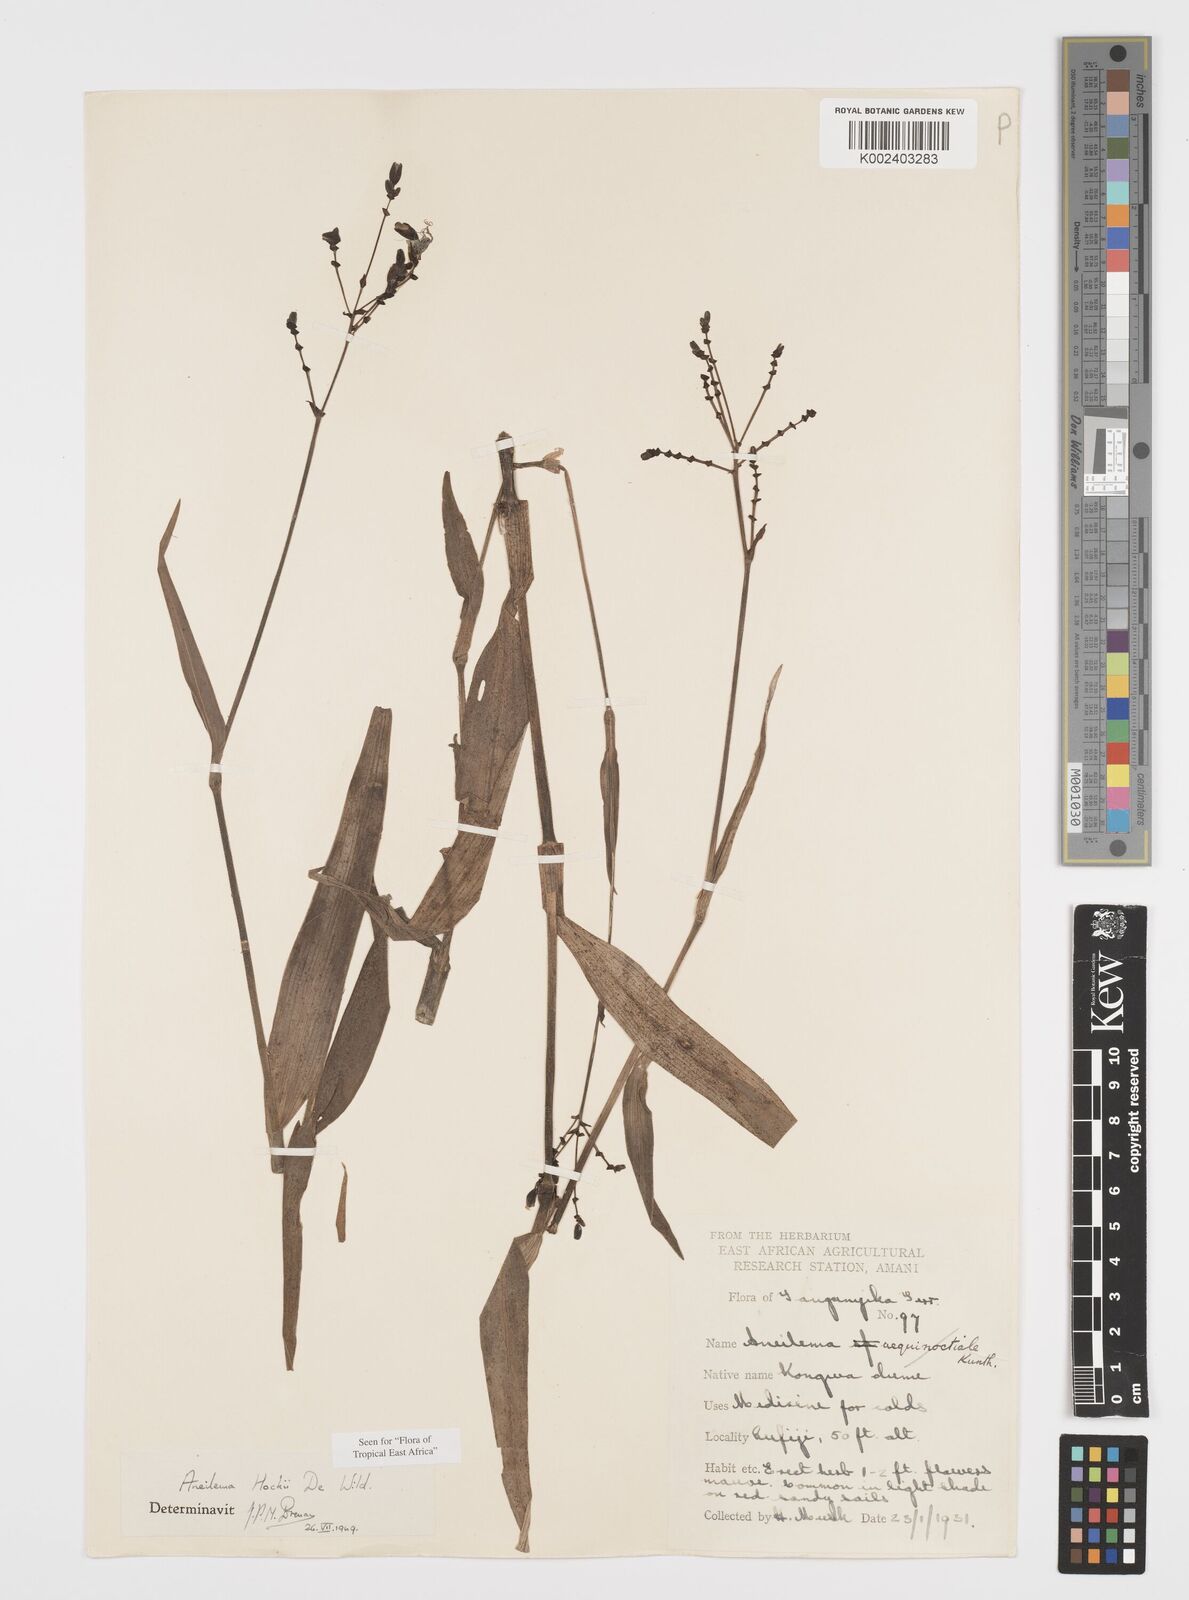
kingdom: Plantae
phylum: Tracheophyta
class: Liliopsida
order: Commelinales
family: Commelinaceae
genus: Aneilema
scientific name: Aneilema hockii
